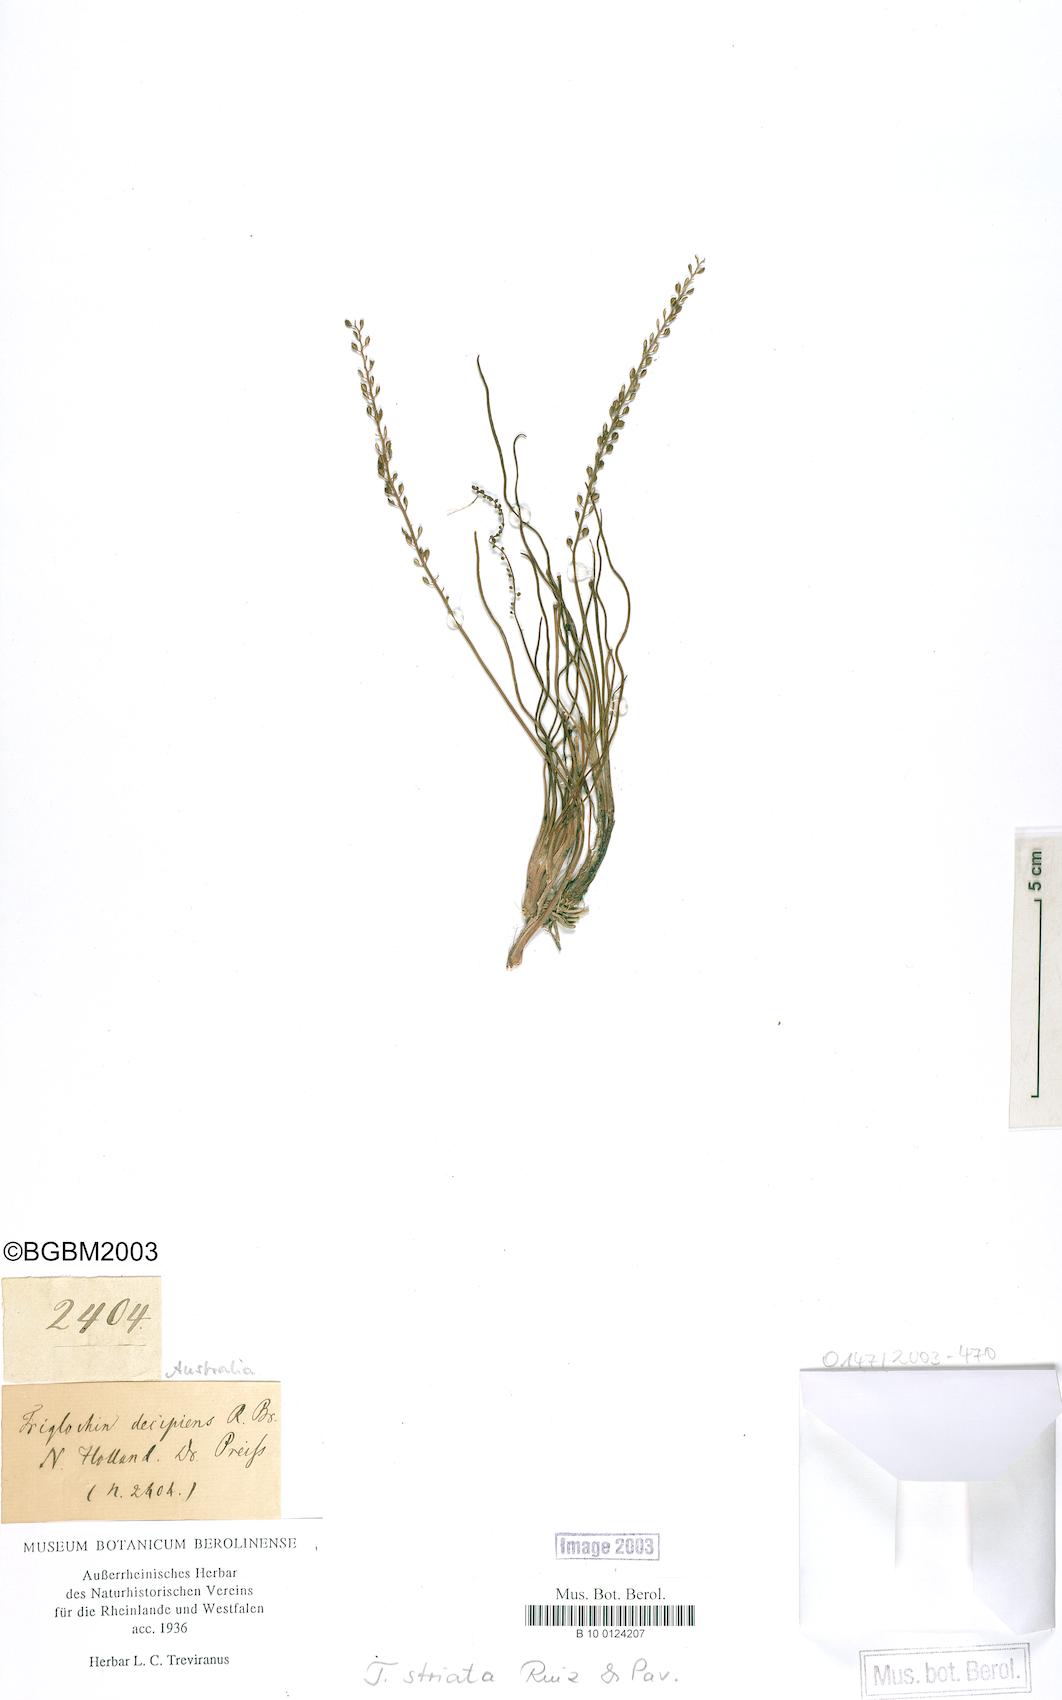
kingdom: Plantae
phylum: Tracheophyta
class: Liliopsida
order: Alismatales
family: Juncaginaceae
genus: Triglochin
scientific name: Triglochin striata
